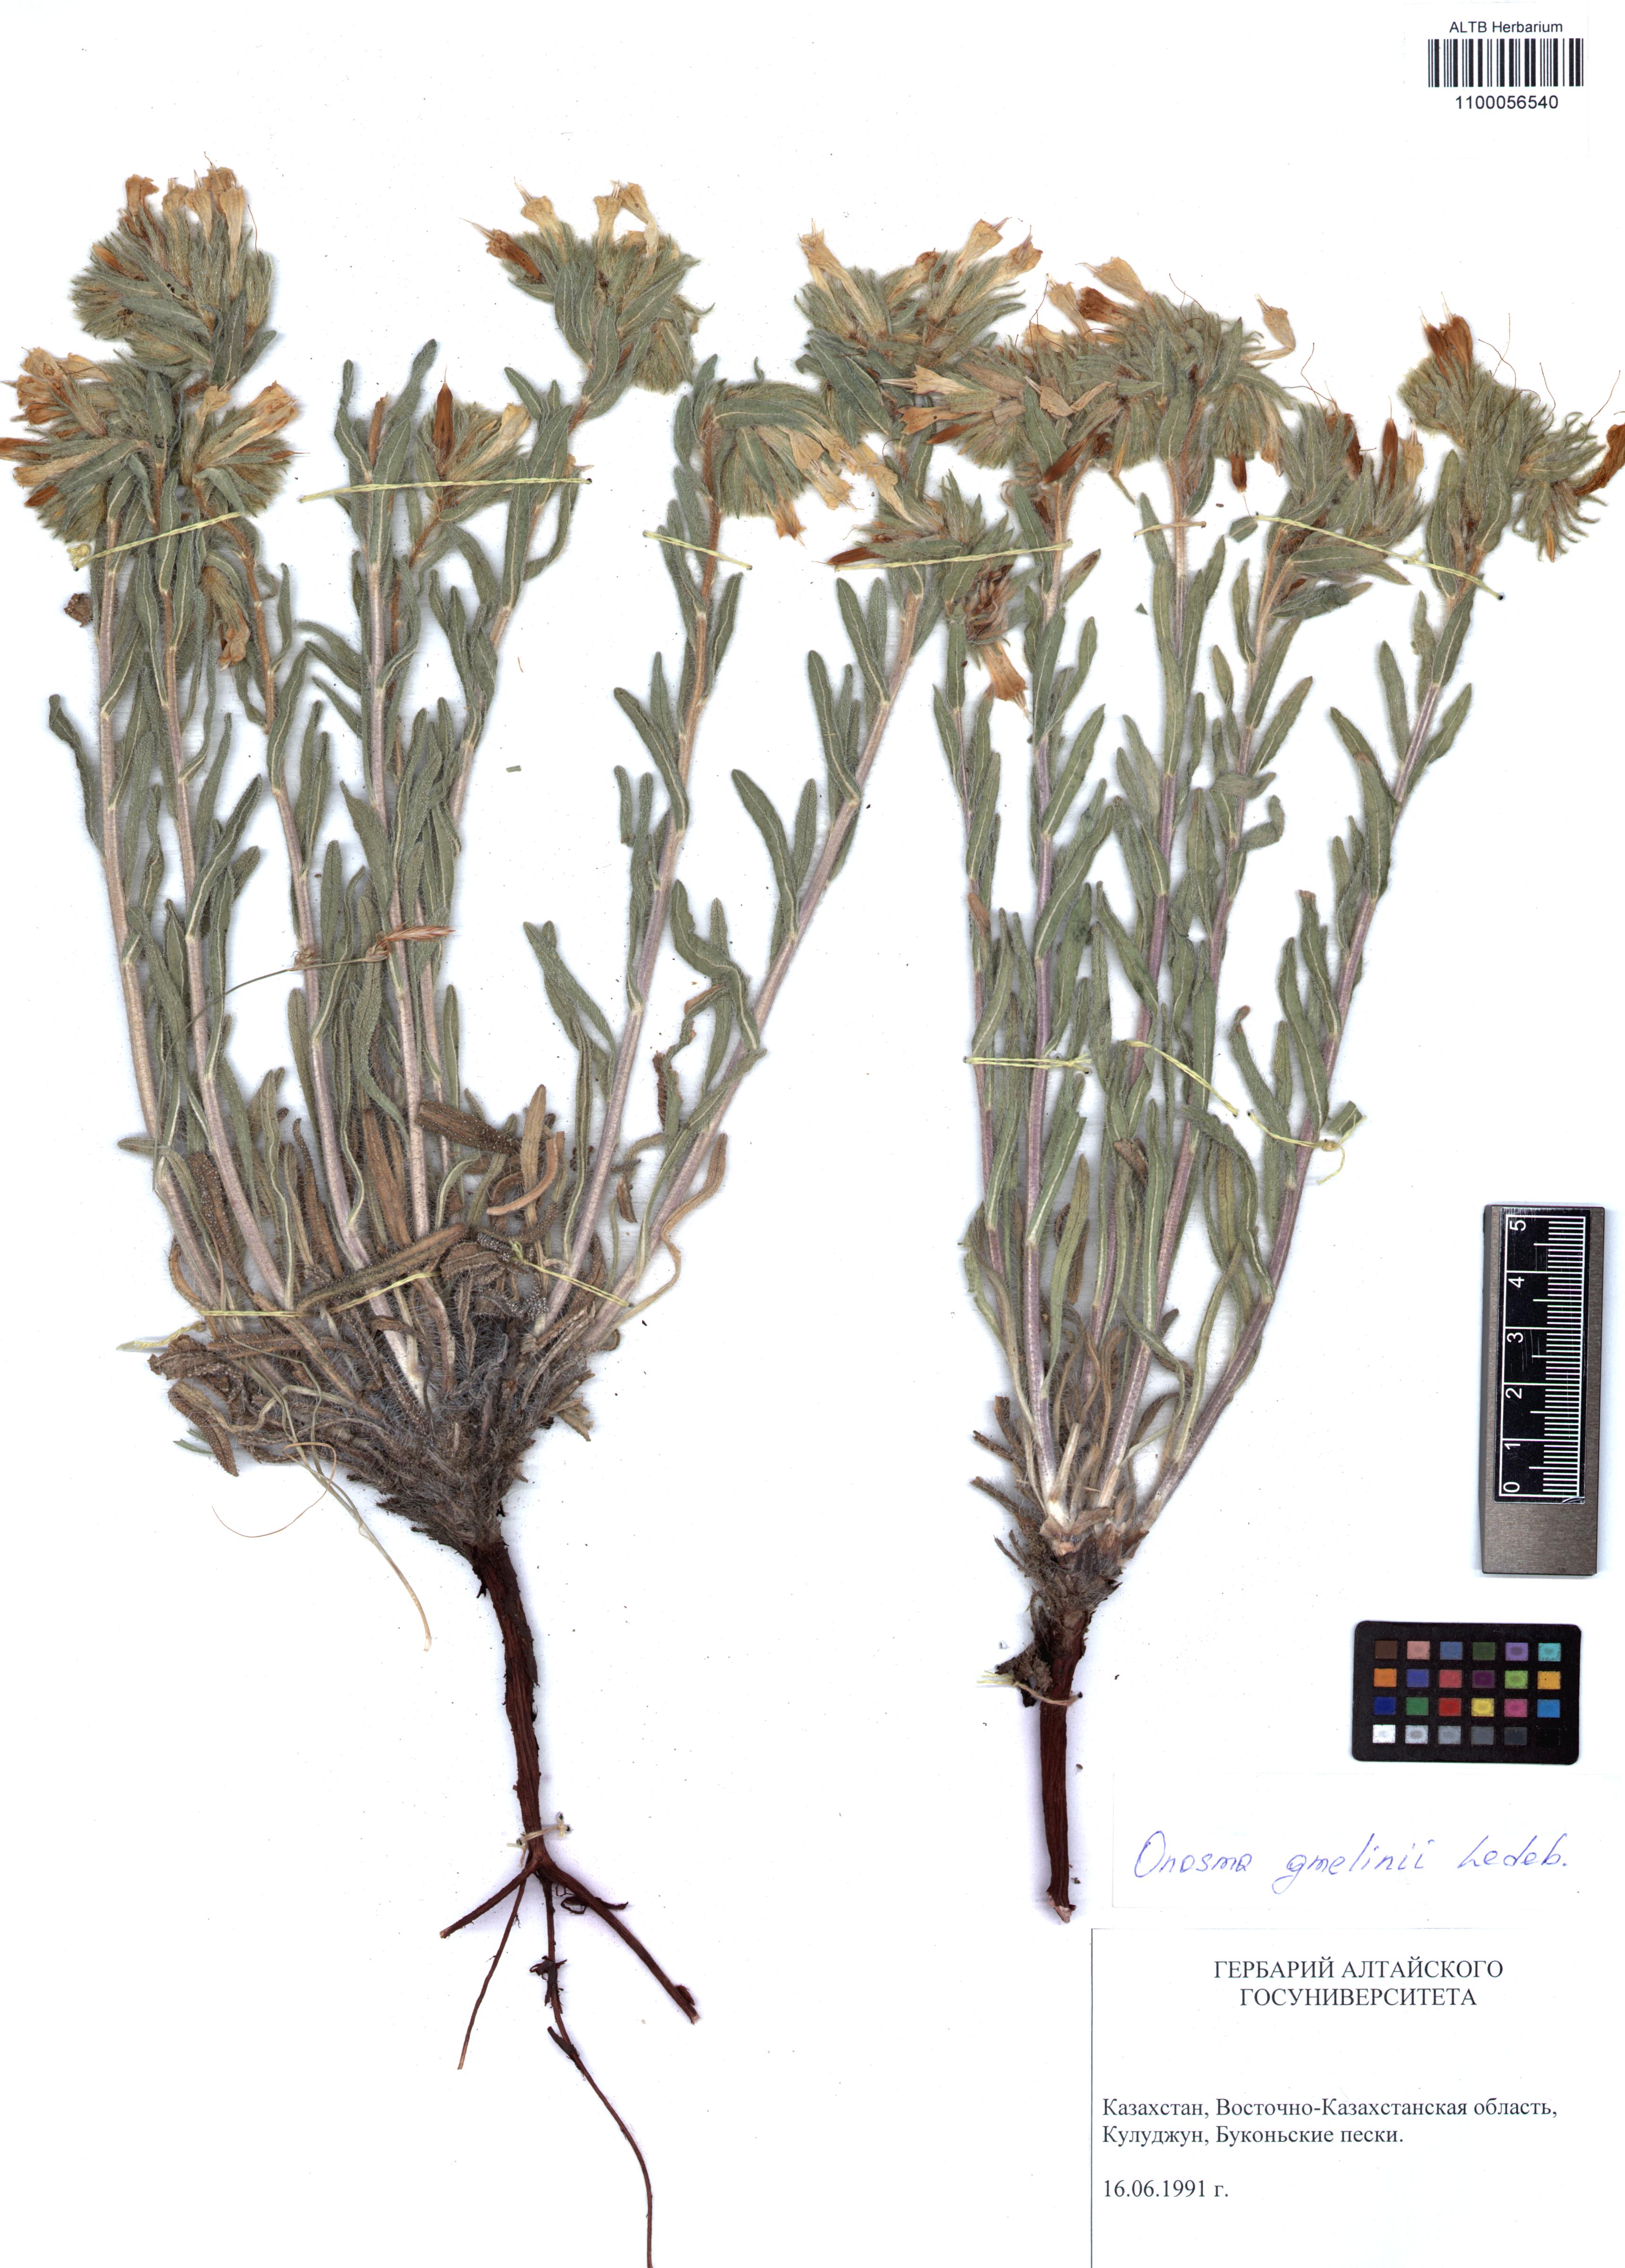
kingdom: Plantae
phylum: Tracheophyta
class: Magnoliopsida
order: Boraginales
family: Boraginaceae
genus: Onosma
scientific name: Onosma gmelinii
